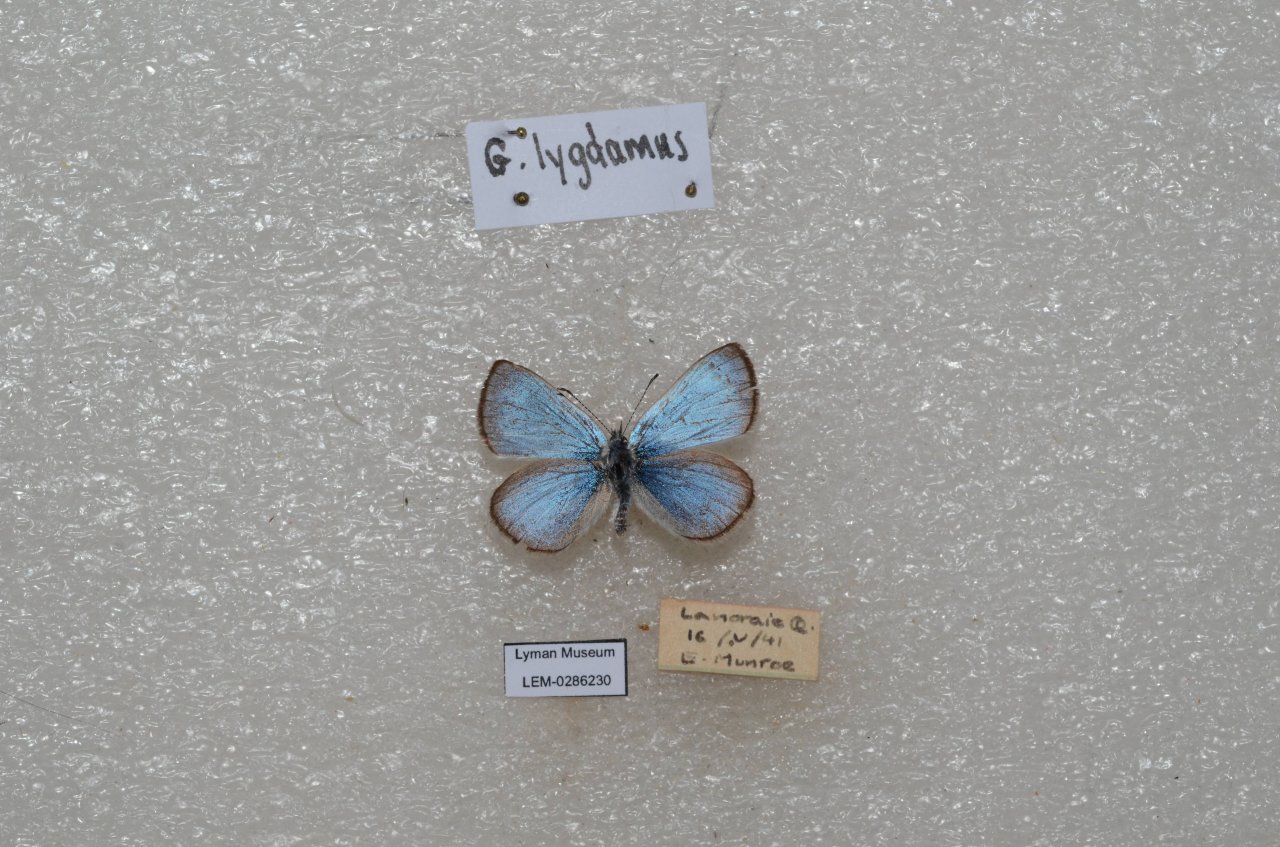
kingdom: Animalia
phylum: Arthropoda
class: Insecta
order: Lepidoptera
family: Lycaenidae
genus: Glaucopsyche
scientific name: Glaucopsyche lygdamus
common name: Silvery Blue
